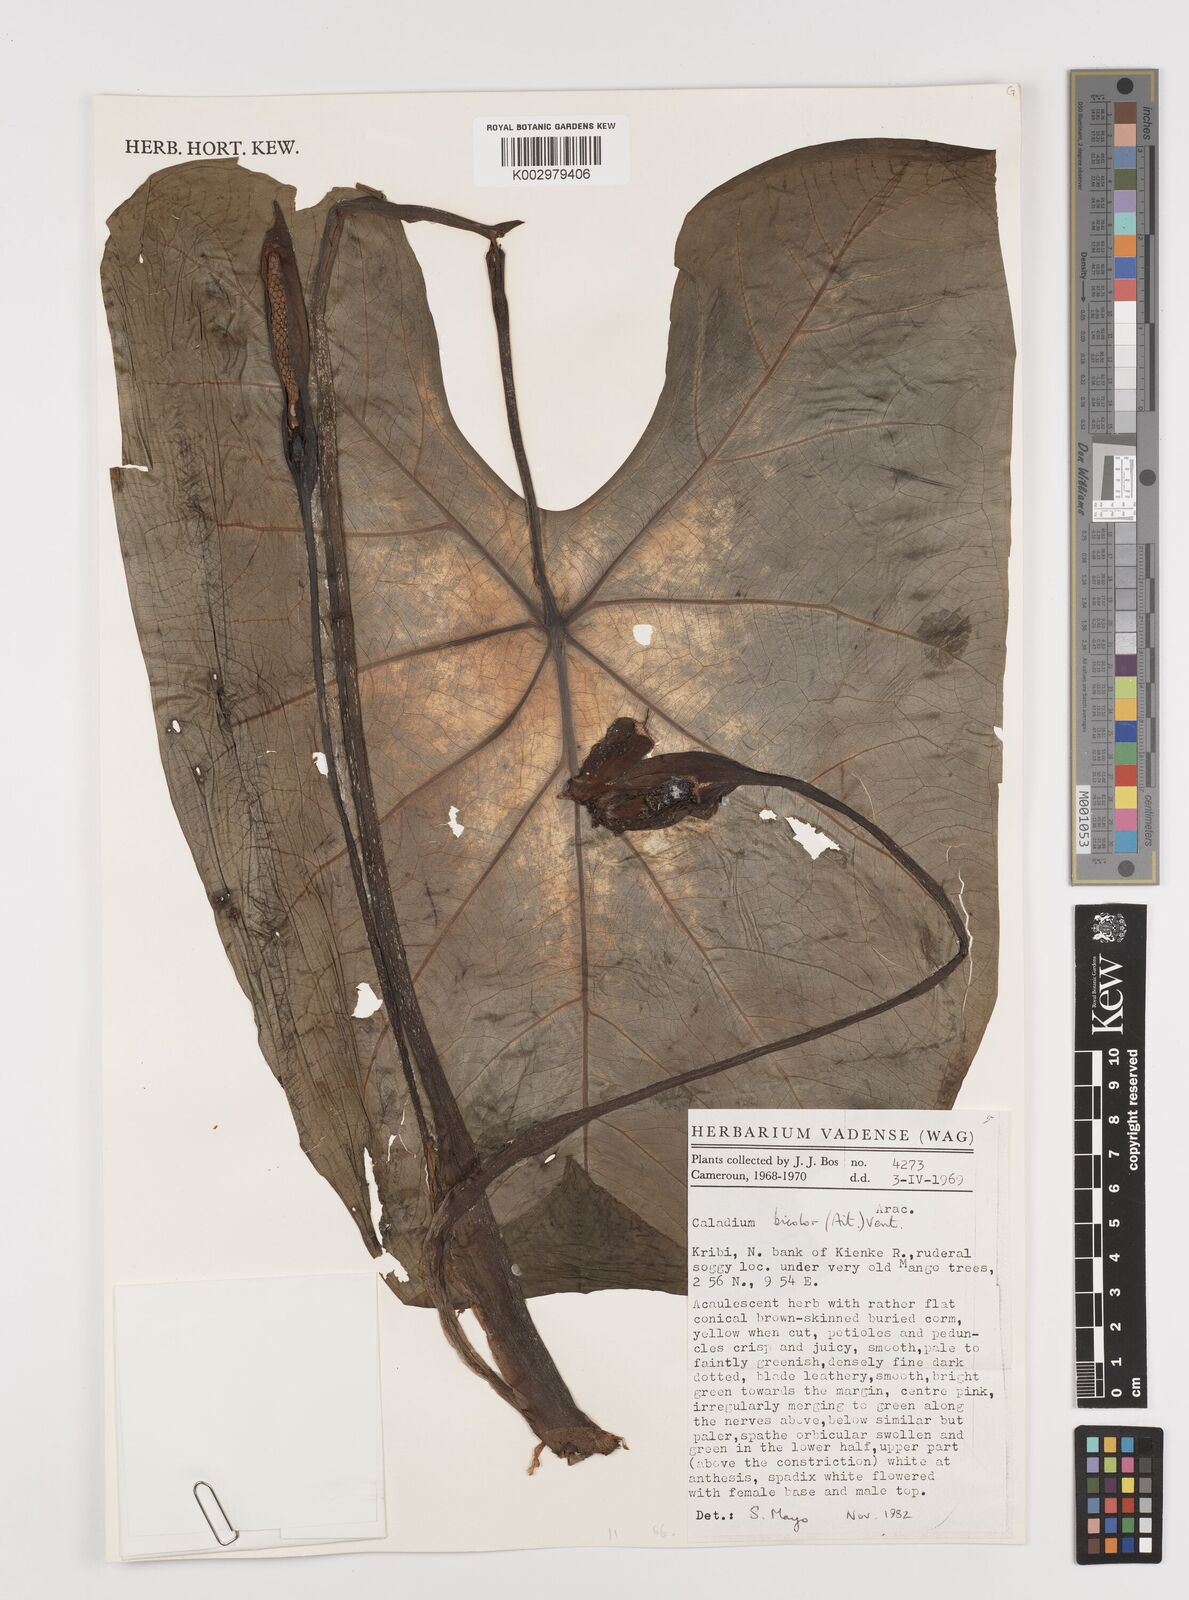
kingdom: Plantae
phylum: Tracheophyta
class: Liliopsida
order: Alismatales
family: Araceae
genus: Caladium
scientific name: Caladium bicolor
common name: Artist's pallet
